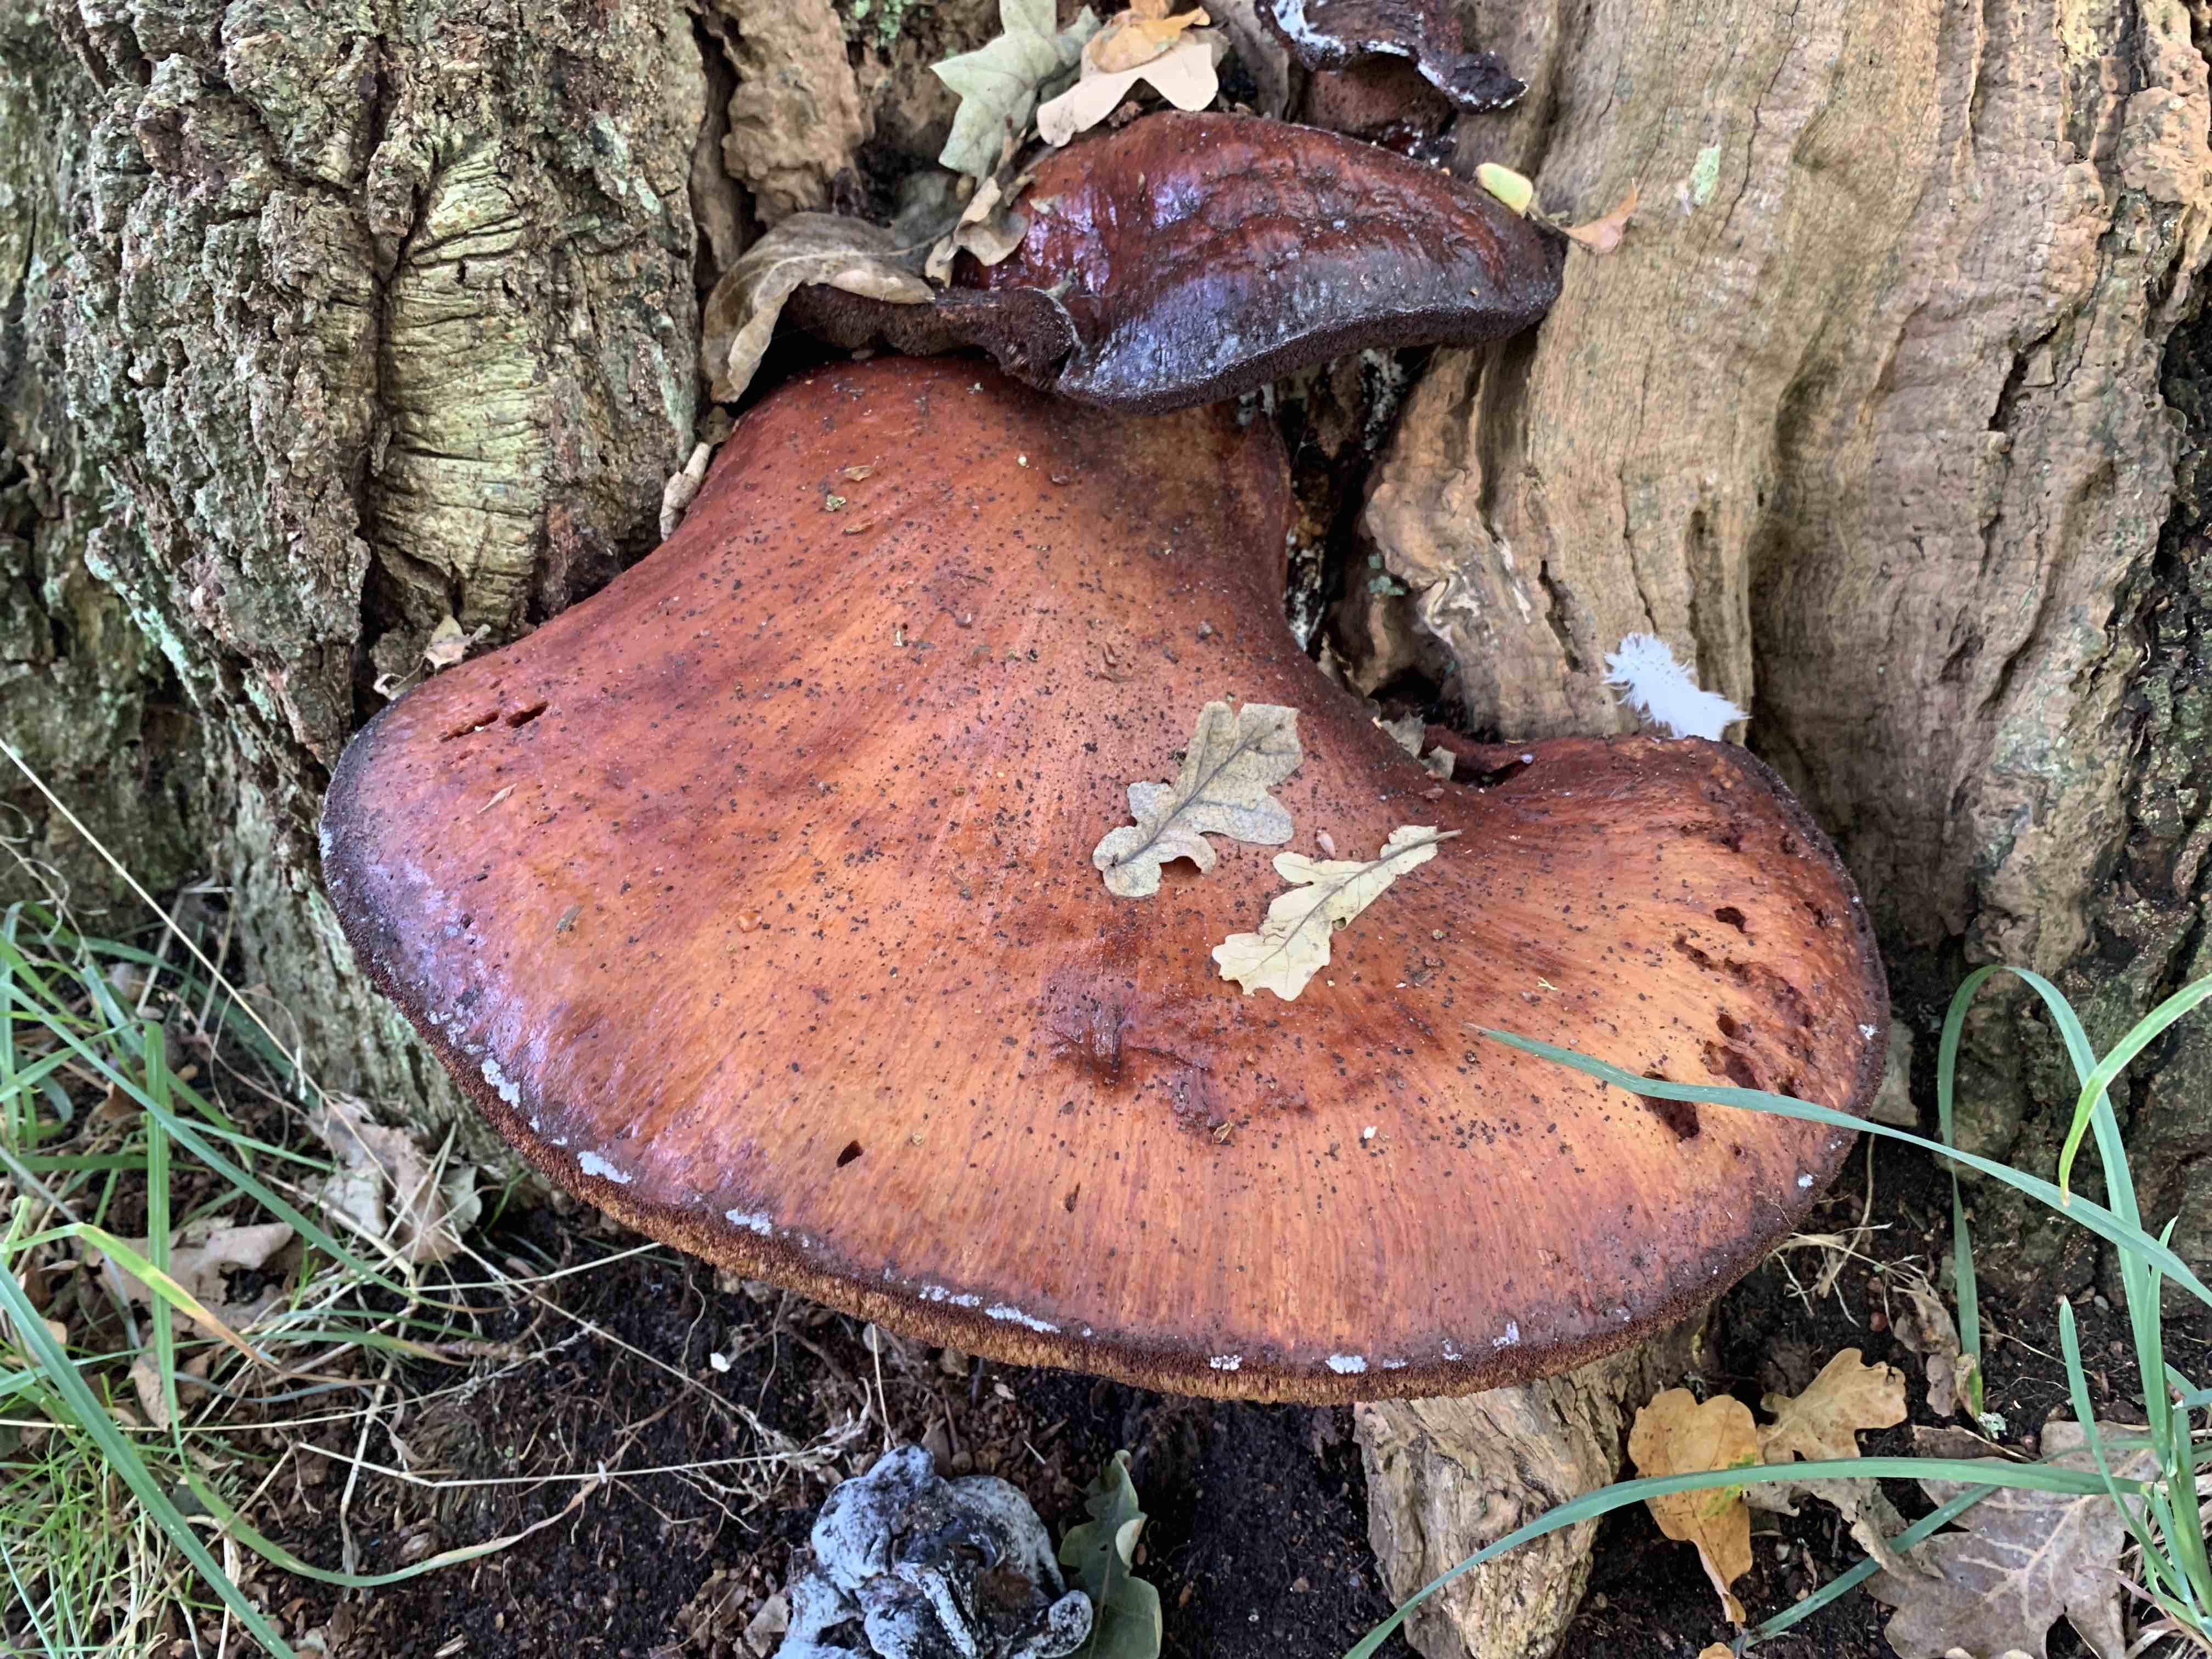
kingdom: Fungi
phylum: Basidiomycota
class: Agaricomycetes
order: Agaricales
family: Fistulinaceae
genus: Fistulina
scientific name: Fistulina hepatica
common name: oksetunge
